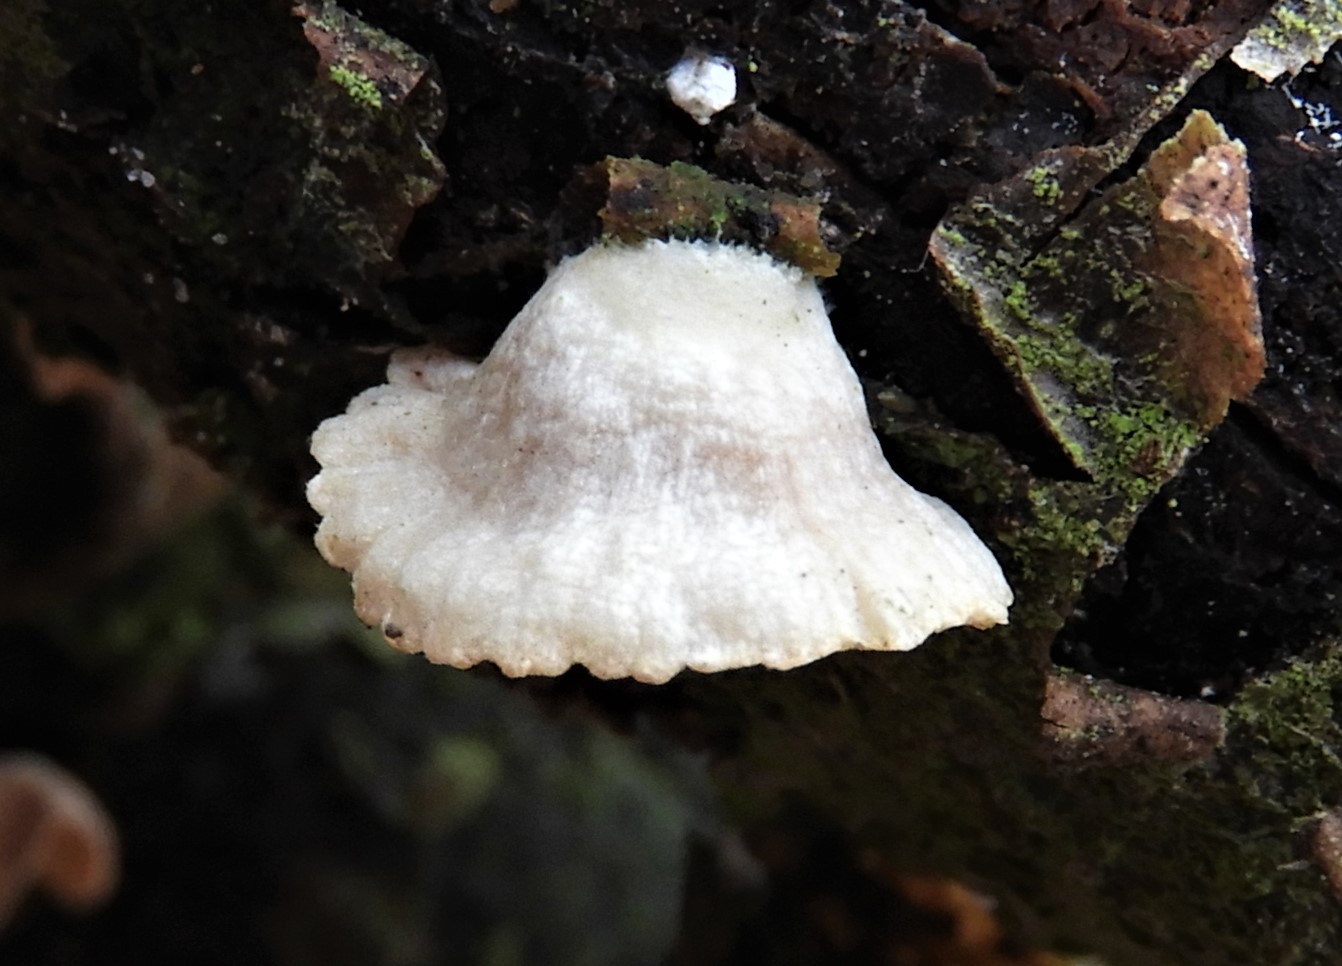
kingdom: Fungi
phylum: Basidiomycota
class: Agaricomycetes
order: Agaricales
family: Crepidotaceae
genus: Crepidotus
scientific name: Crepidotus
